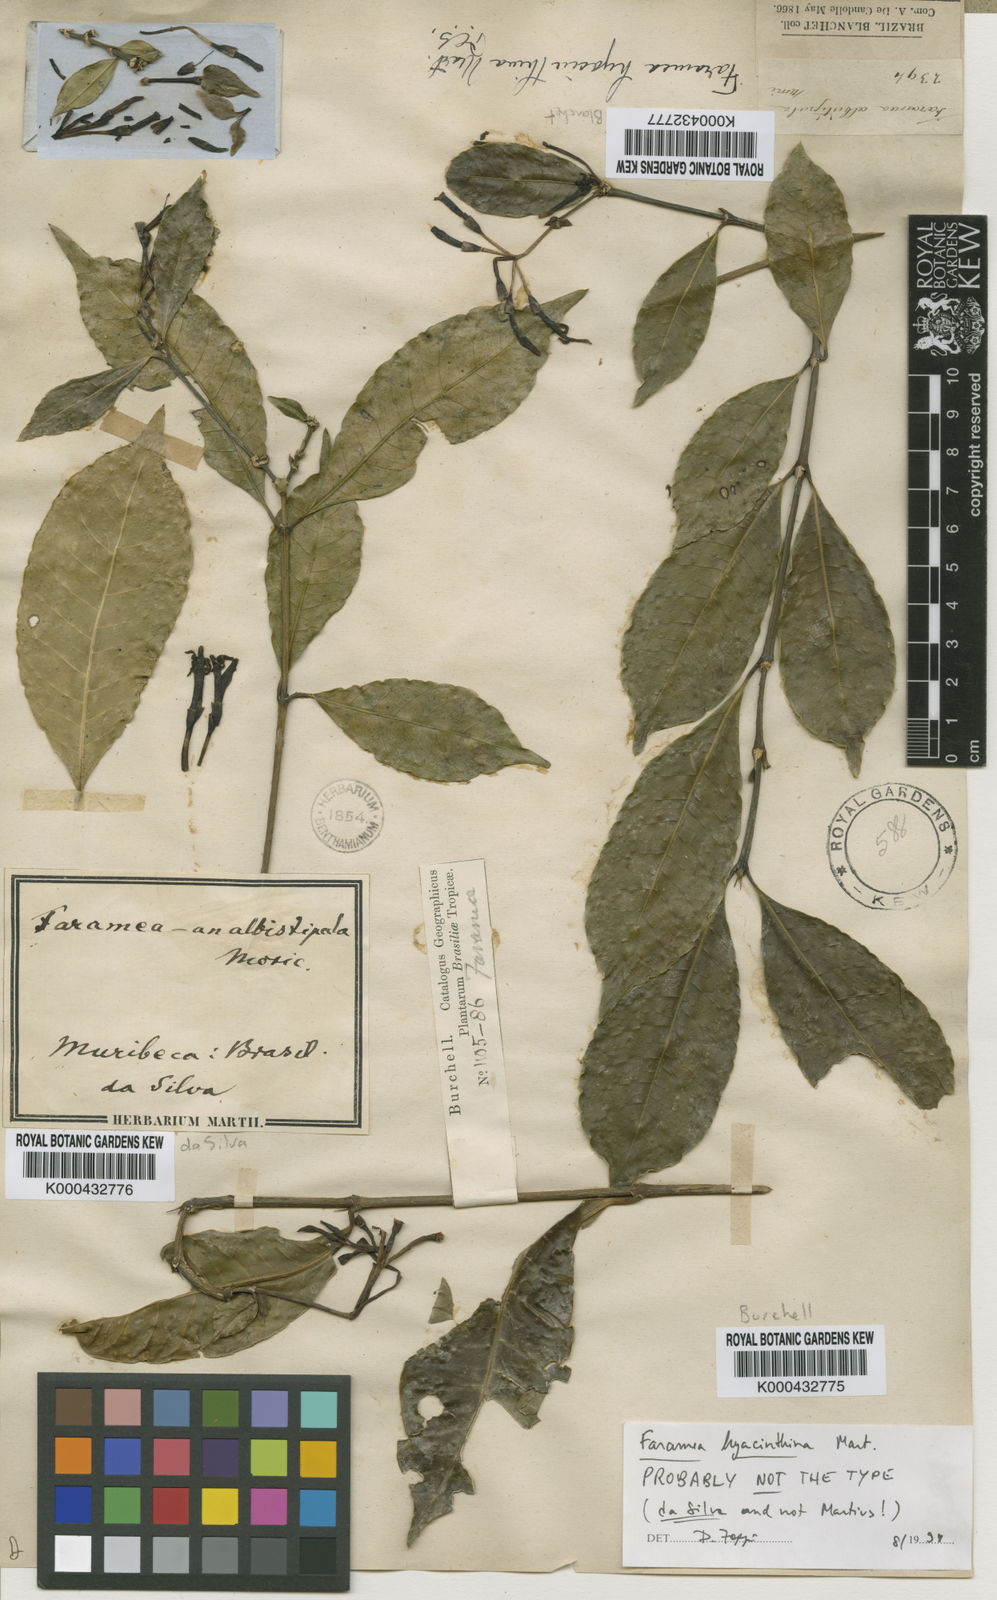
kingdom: Plantae
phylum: Tracheophyta
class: Magnoliopsida
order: Gentianales
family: Rubiaceae
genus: Faramea
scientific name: Faramea hyacinthina
